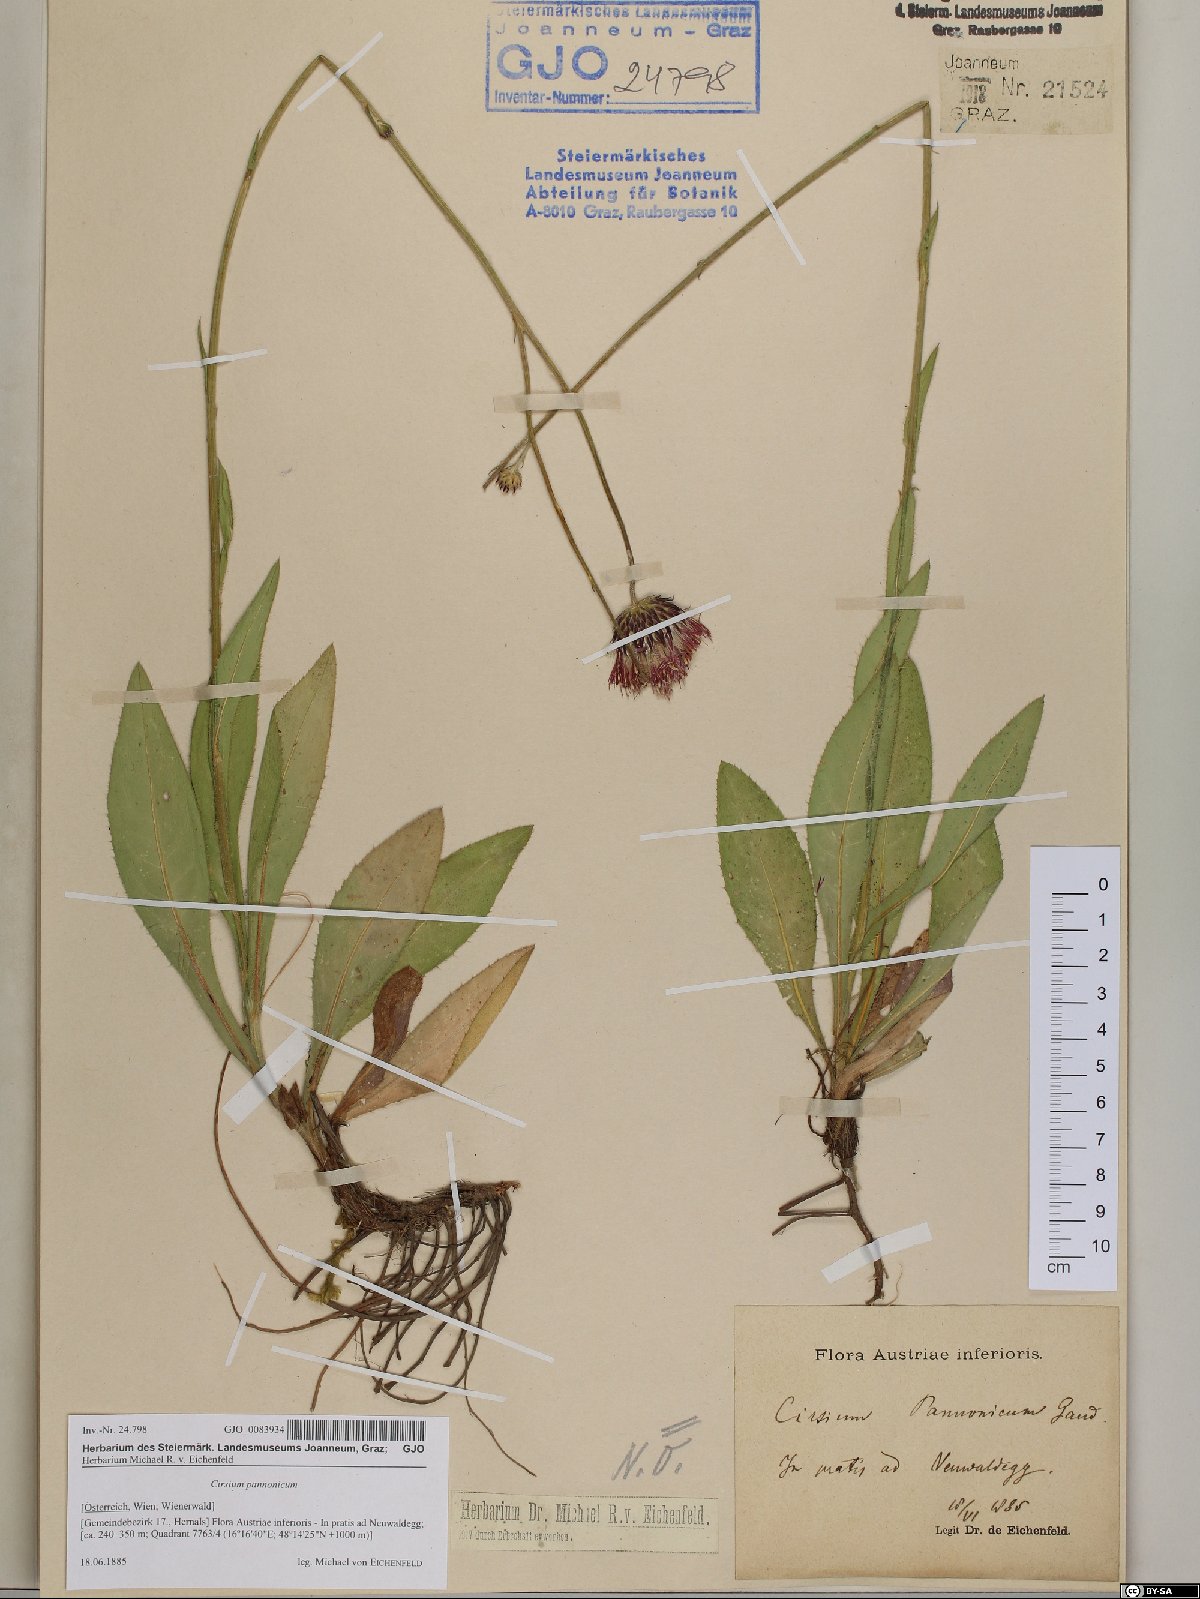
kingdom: Plantae
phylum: Tracheophyta
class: Magnoliopsida
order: Asterales
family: Asteraceae
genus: Cirsium
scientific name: Cirsium pannonicum
